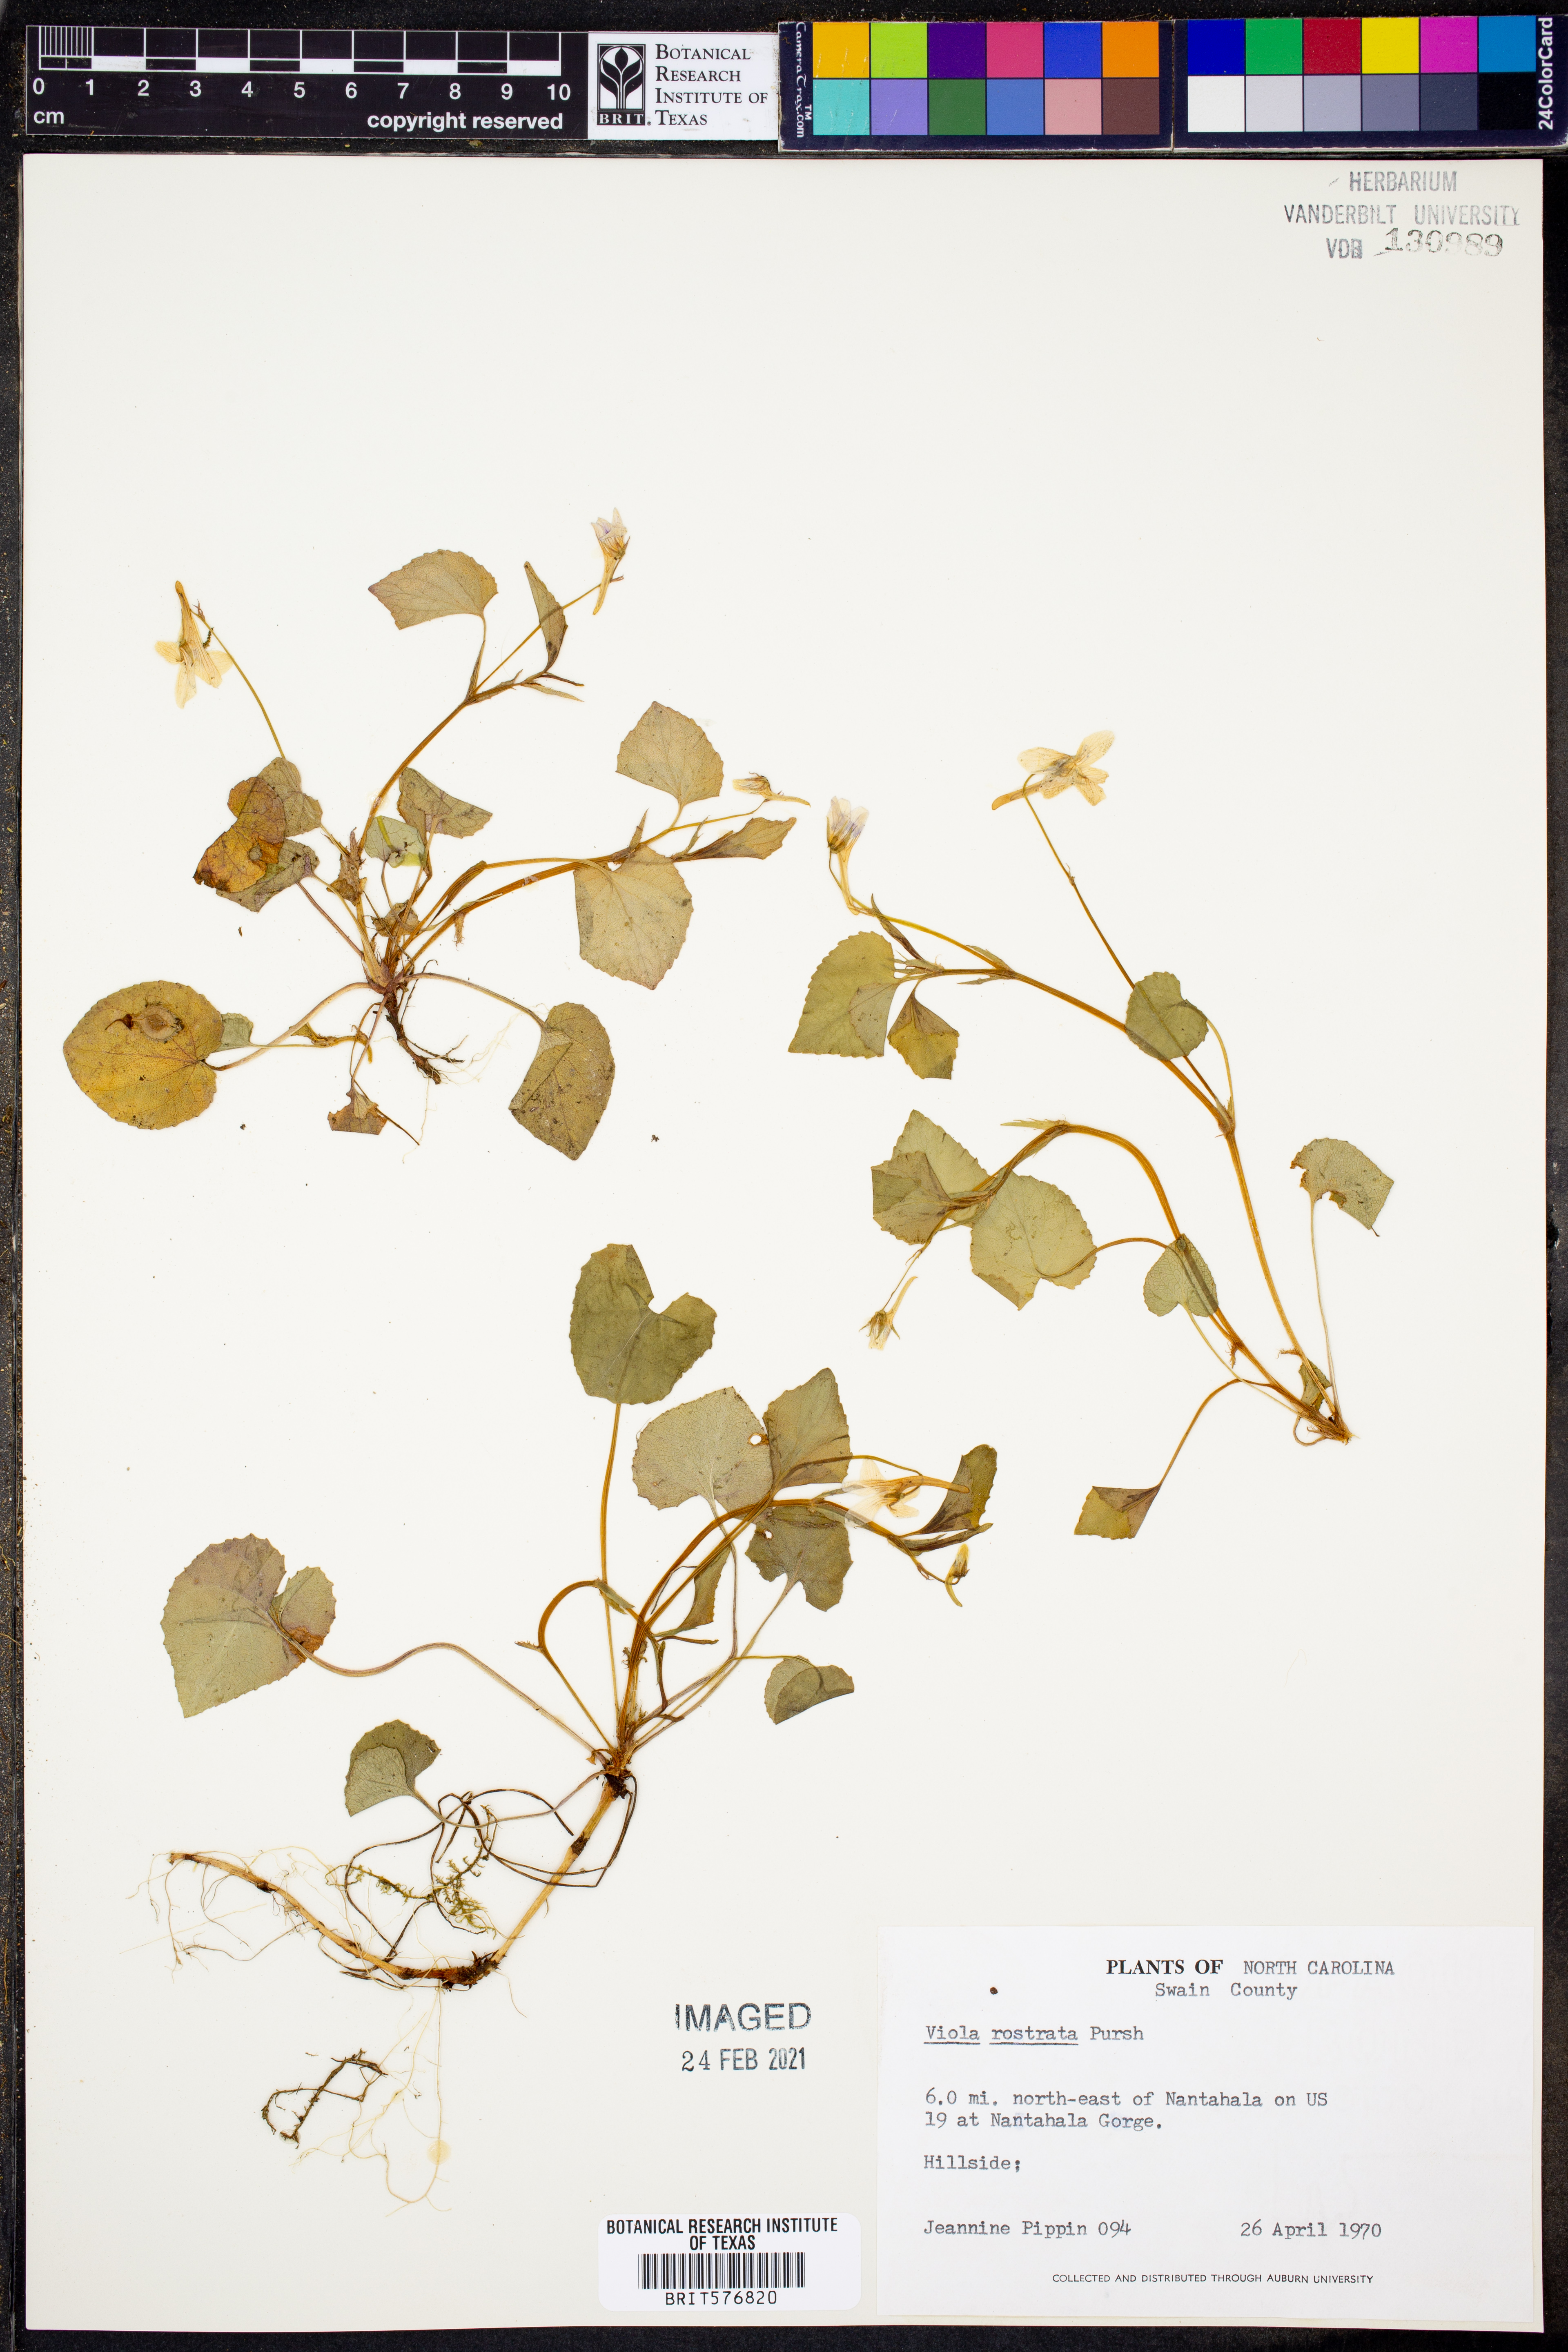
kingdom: Plantae
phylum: Tracheophyta
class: Magnoliopsida
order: Malpighiales
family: Violaceae
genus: Viola
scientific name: Viola rostrata
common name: Long-spur violet
